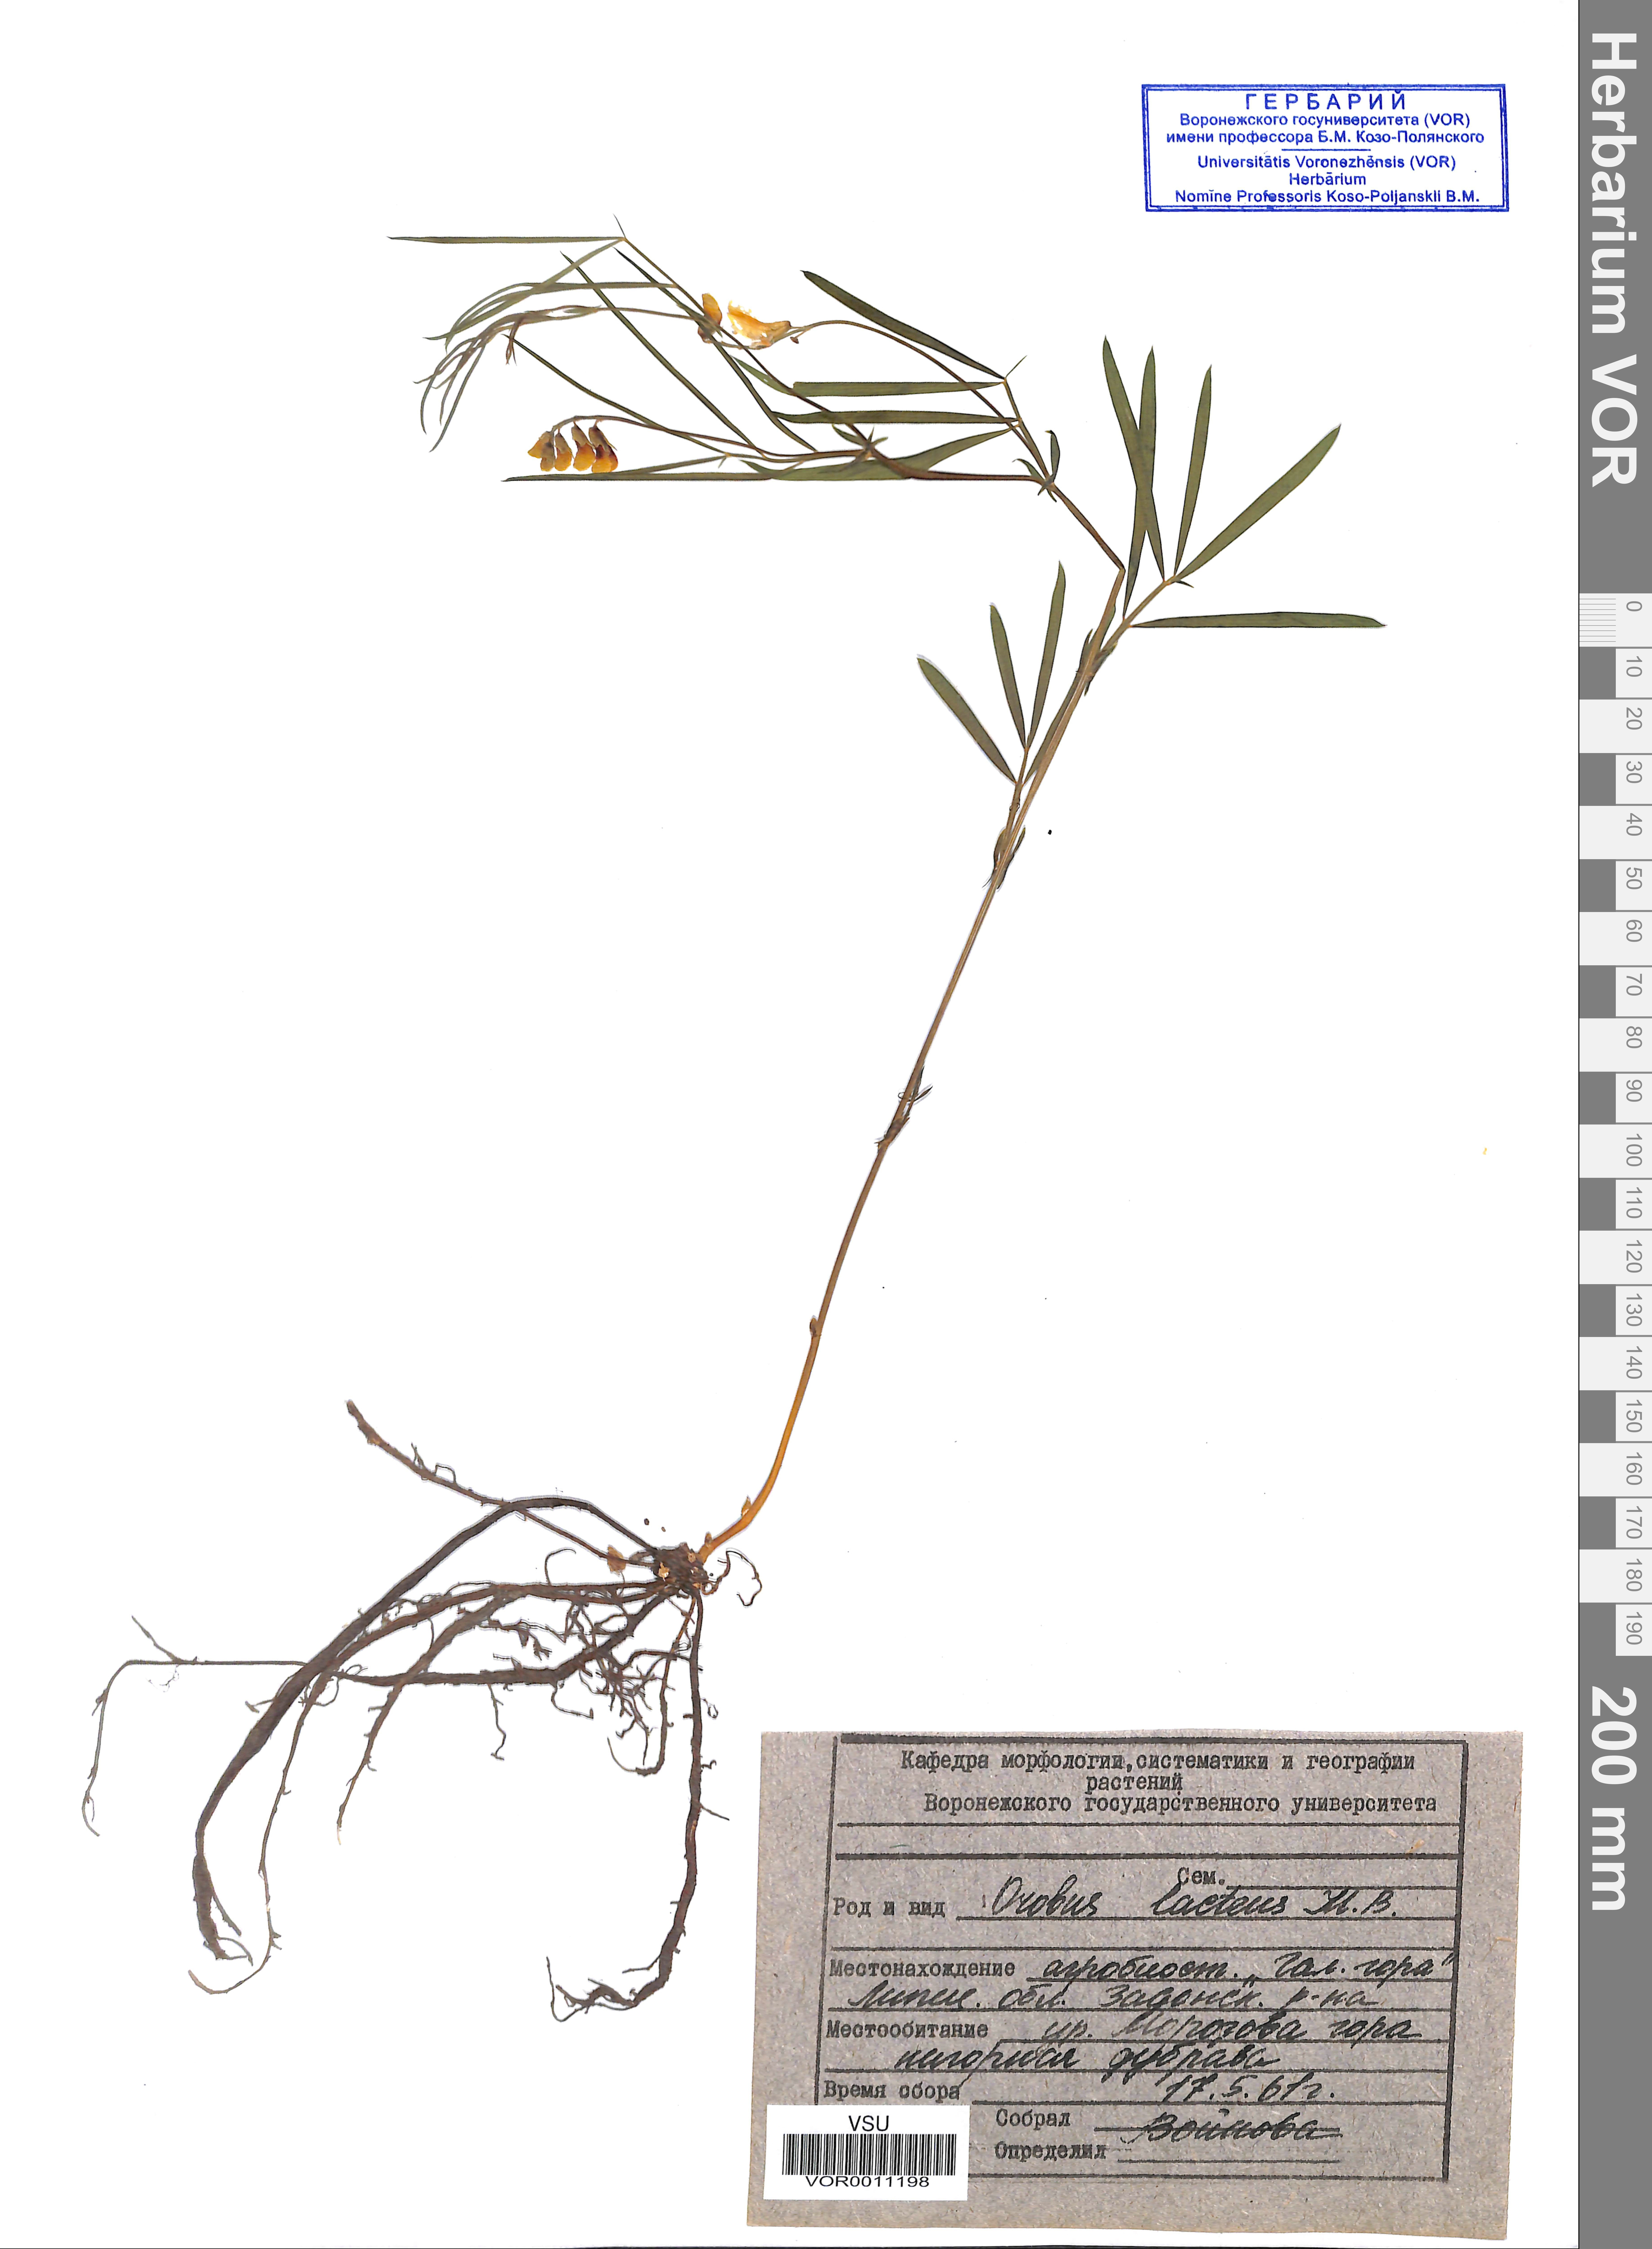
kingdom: Plantae
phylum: Tracheophyta
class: Magnoliopsida
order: Fabales
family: Fabaceae
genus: Lathyrus
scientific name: Lathyrus pannonicus
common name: Pea
